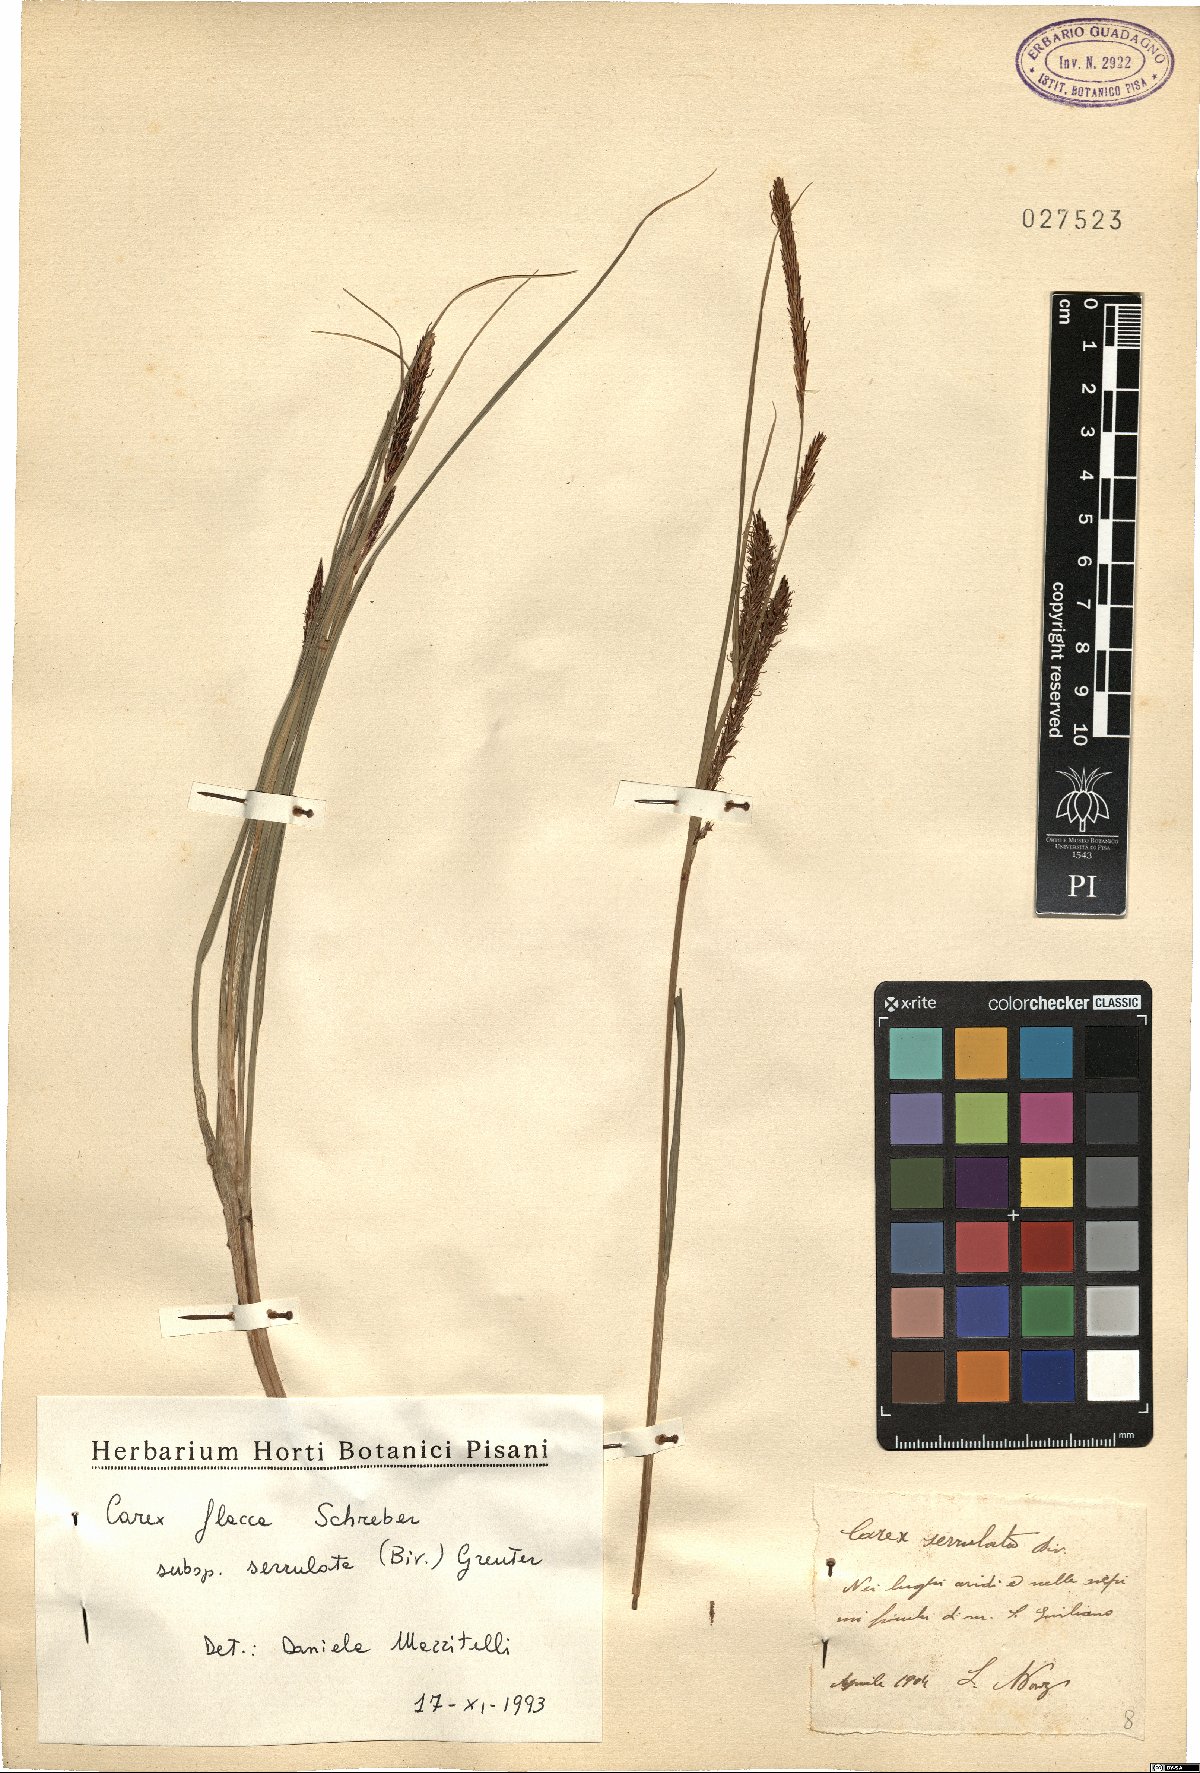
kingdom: Plantae
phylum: Tracheophyta
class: Liliopsida
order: Poales
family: Cyperaceae
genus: Carex
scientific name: Carex flacca
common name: Glaucous sedge
